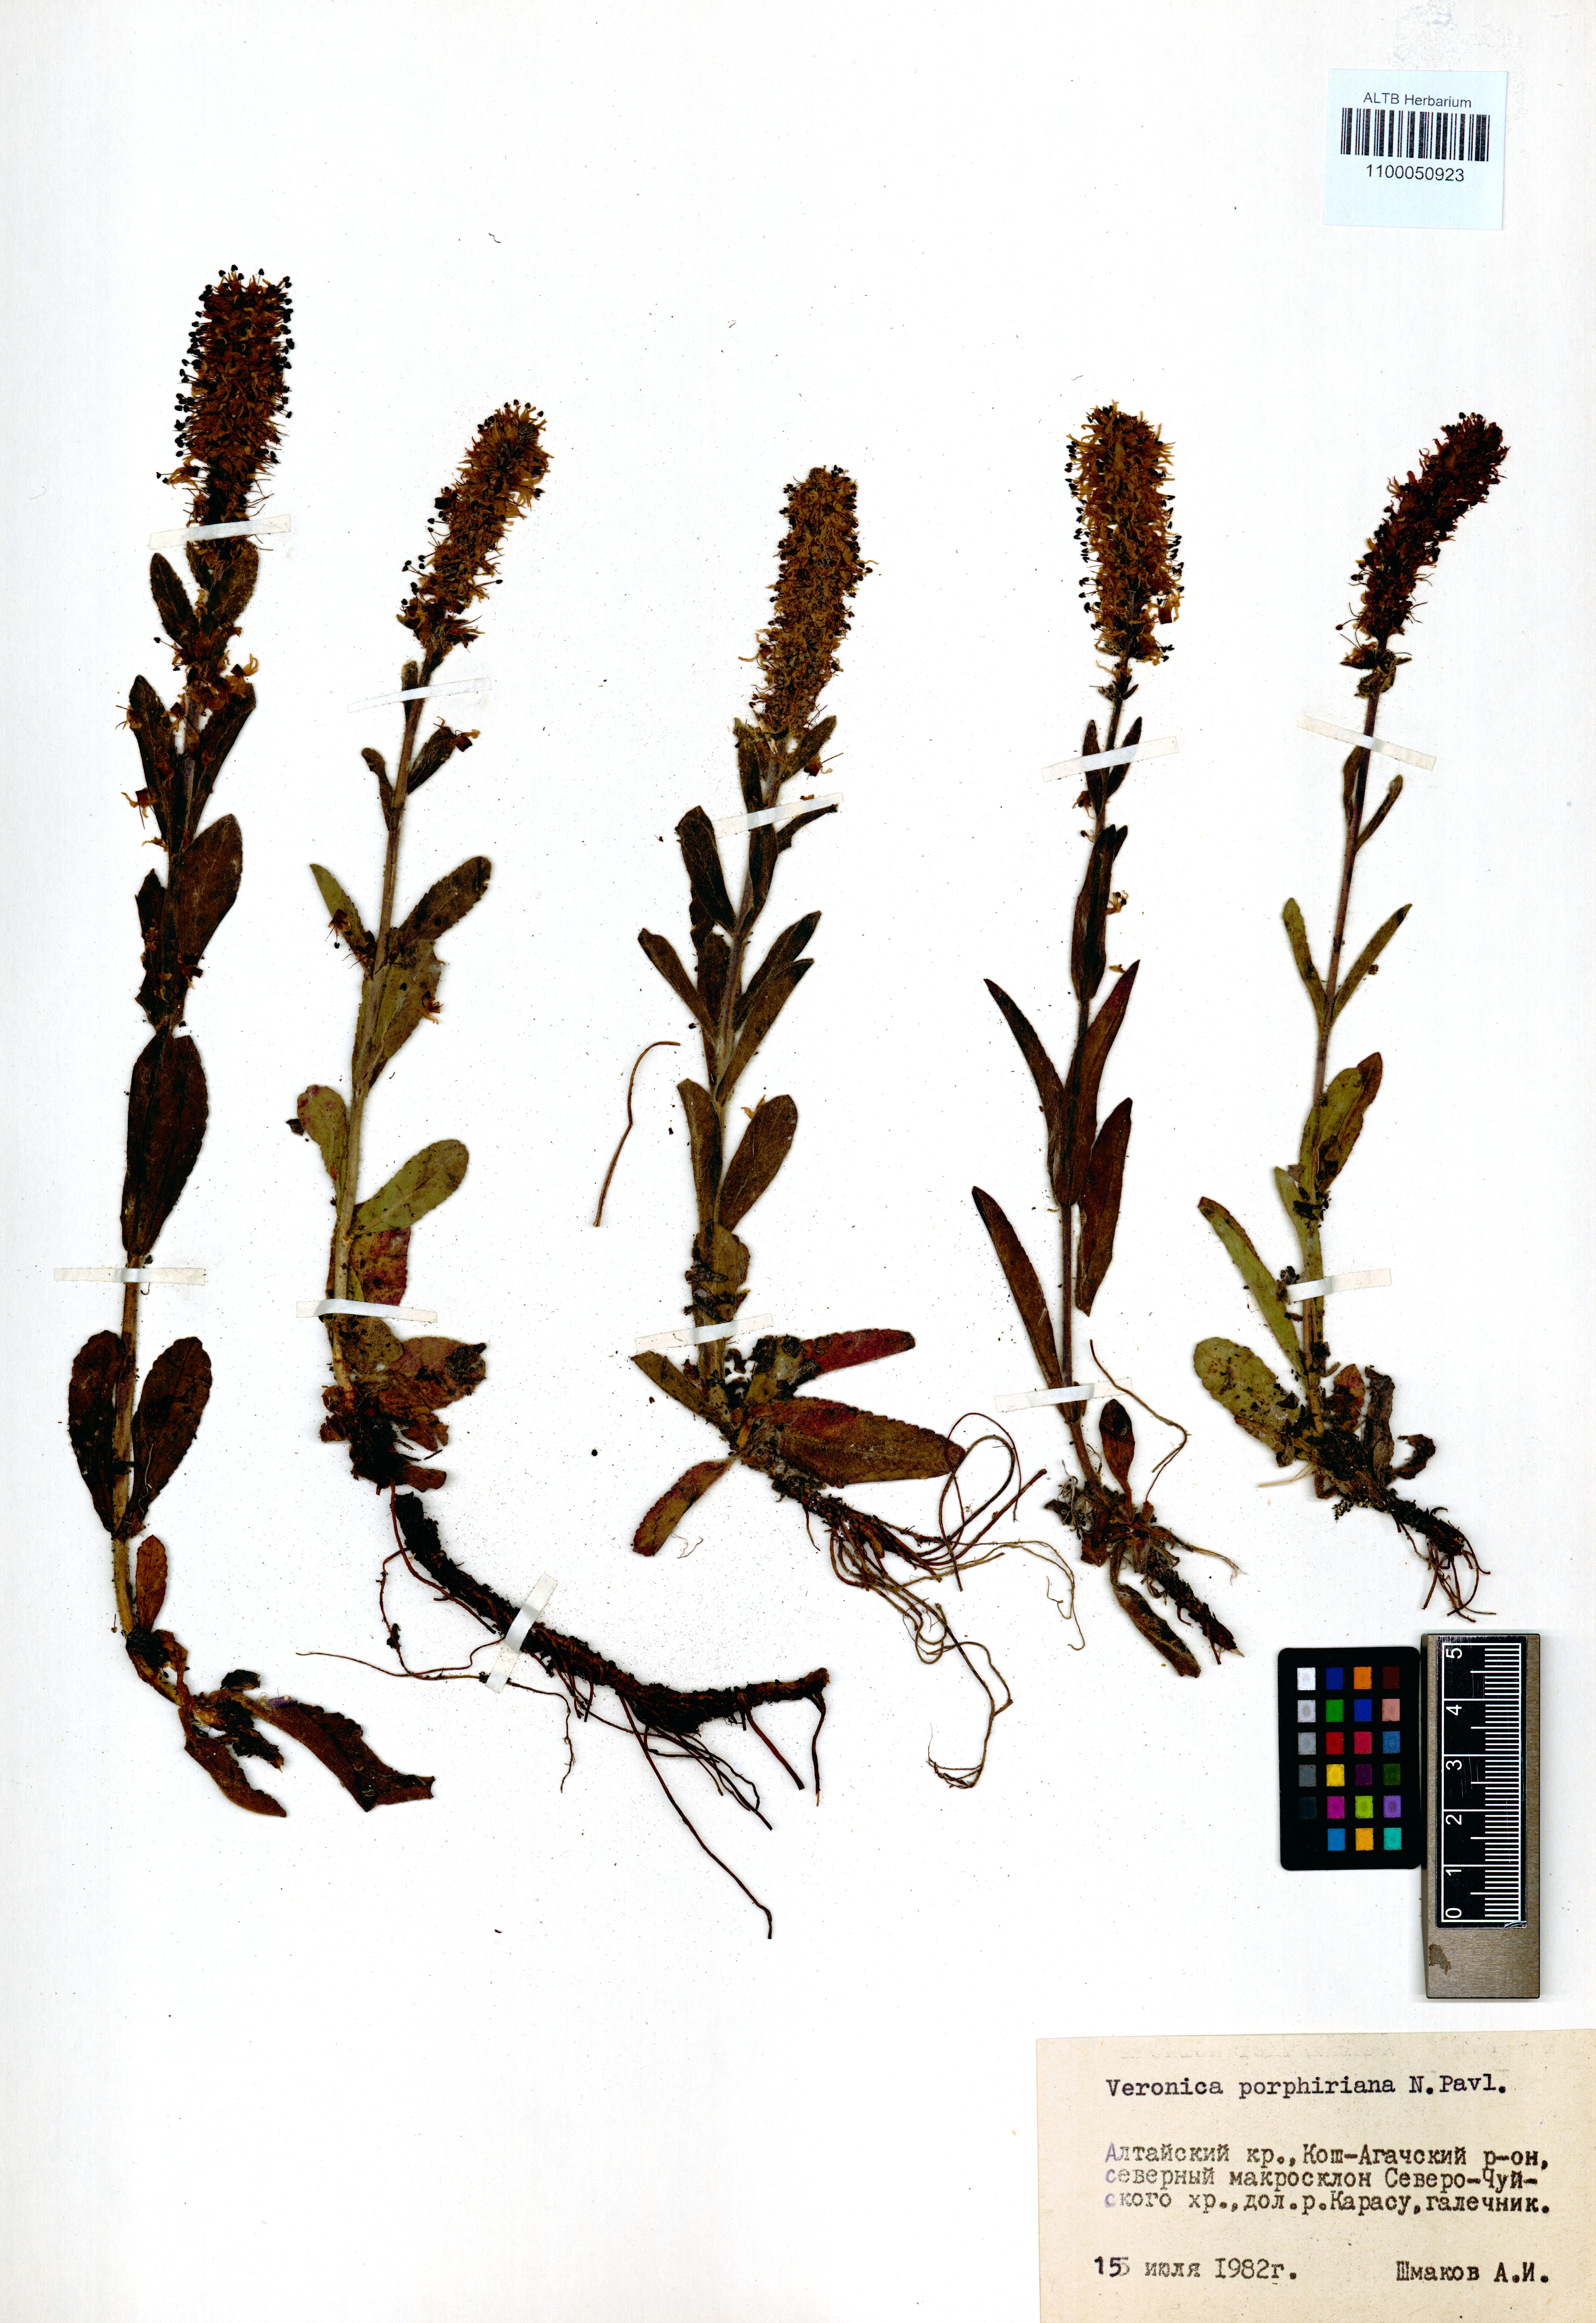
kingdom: Plantae
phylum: Tracheophyta
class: Magnoliopsida
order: Lamiales
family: Plantaginaceae
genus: Veronica
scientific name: Veronica porphyriana
